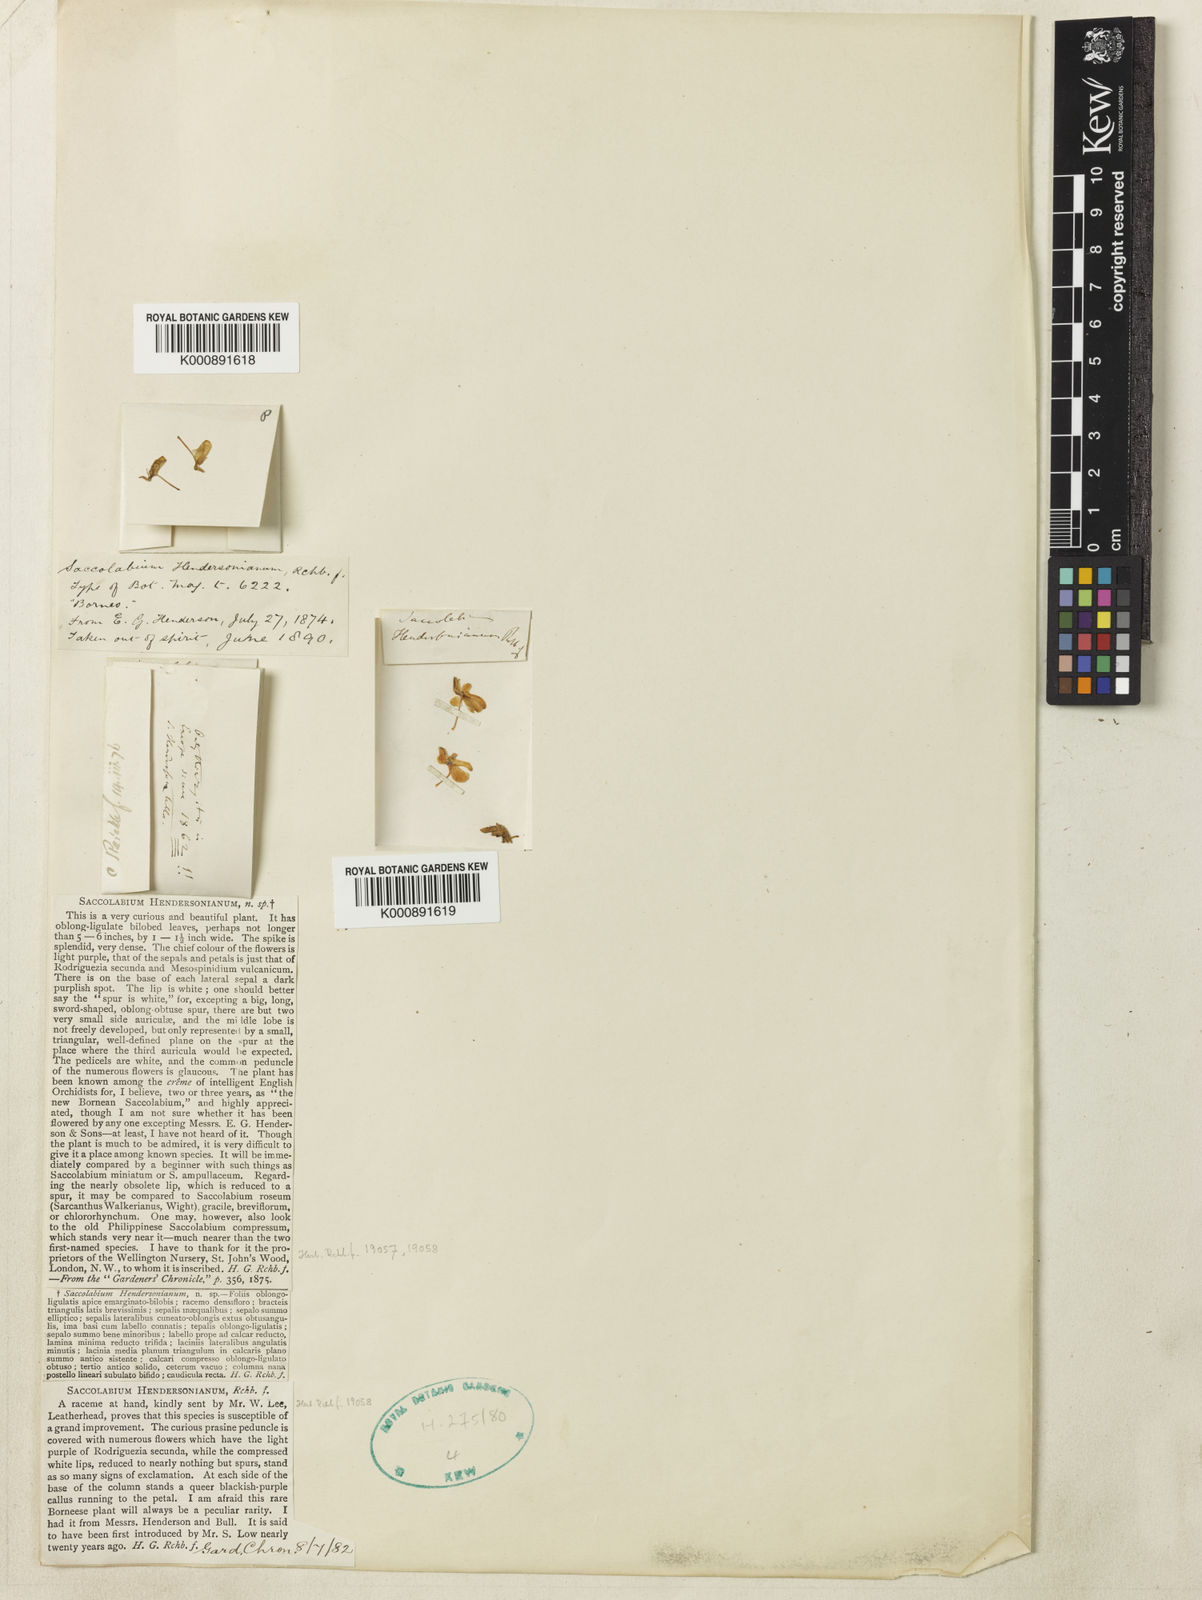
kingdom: Plantae
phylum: Tracheophyta
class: Liliopsida
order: Asparagales
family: Orchidaceae
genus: Dyakia
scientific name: Dyakia hendersoniana
